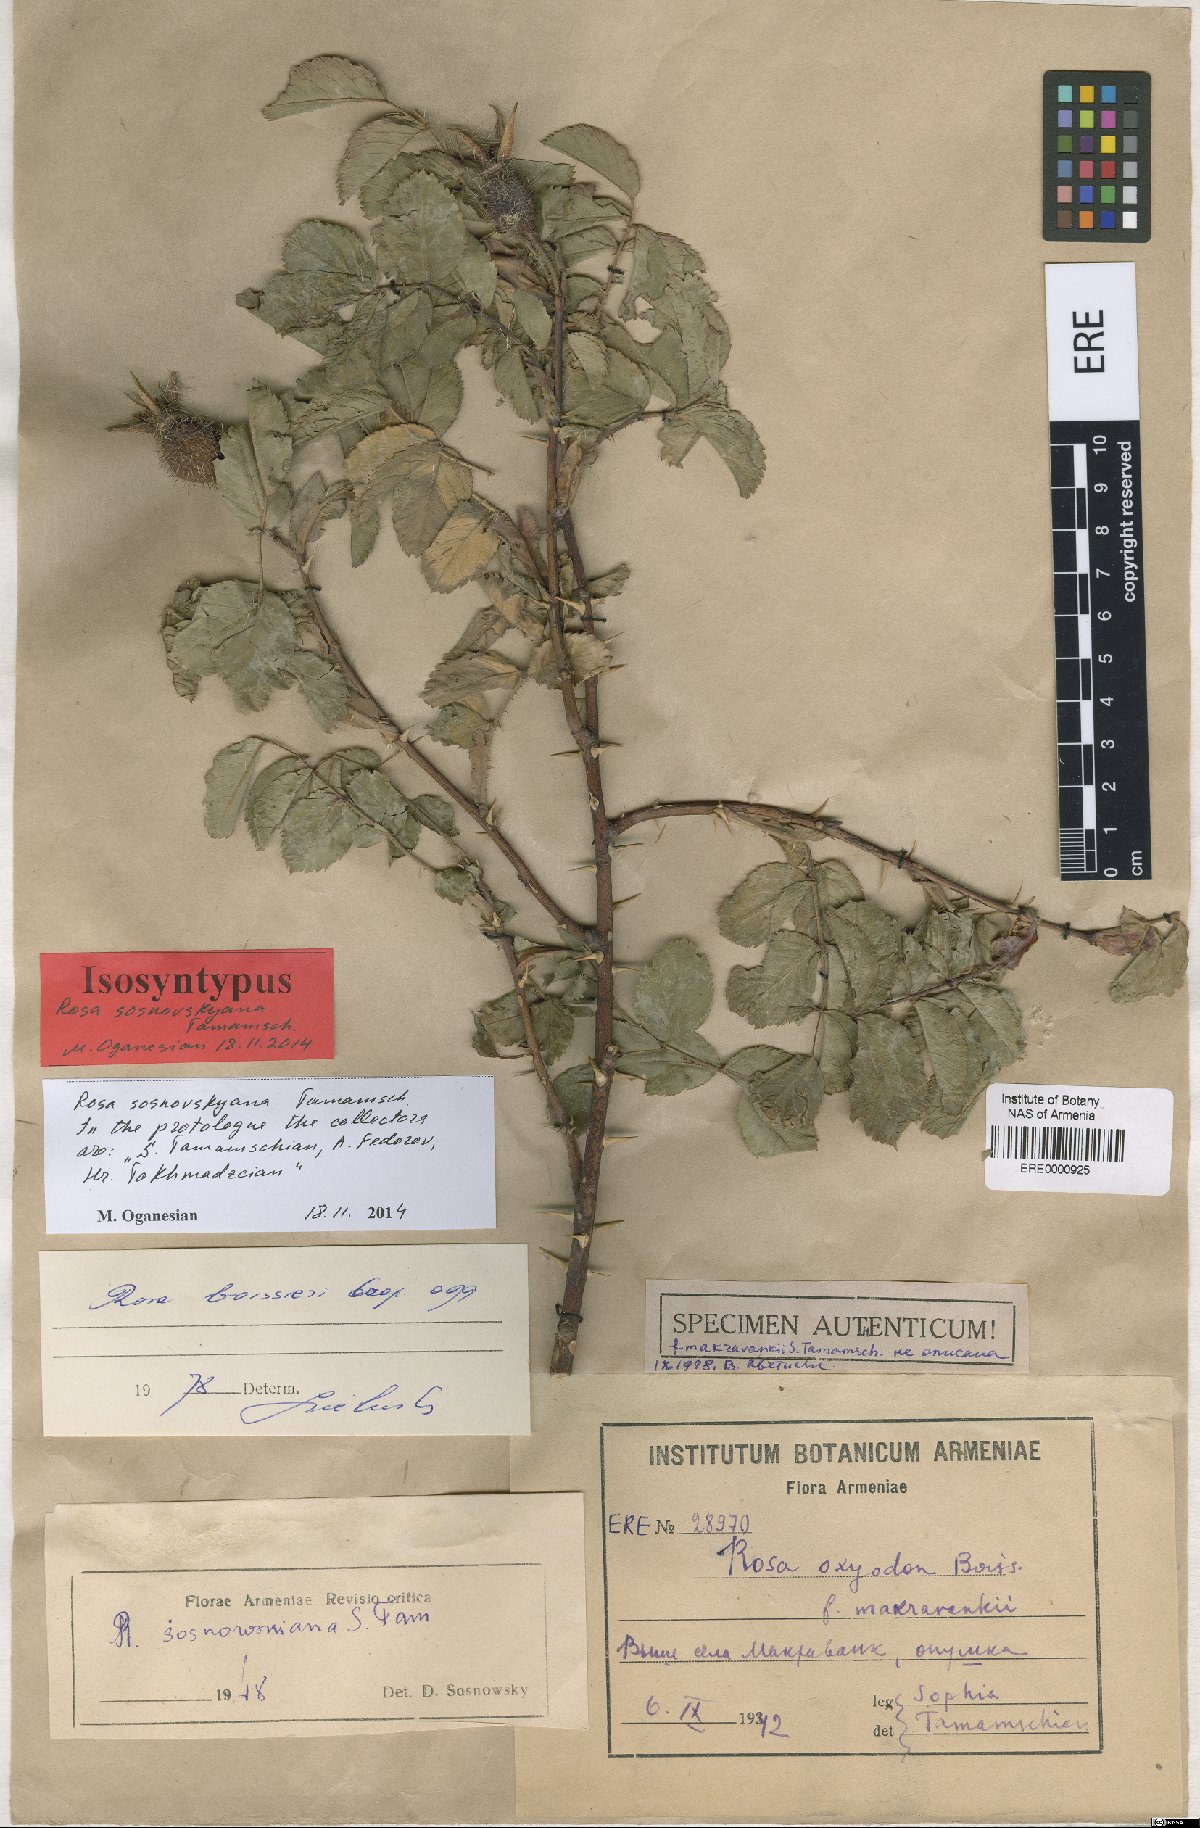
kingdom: Plantae
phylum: Tracheophyta
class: Magnoliopsida
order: Rosales
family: Rosaceae
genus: Rosa
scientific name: Rosa boissieri
